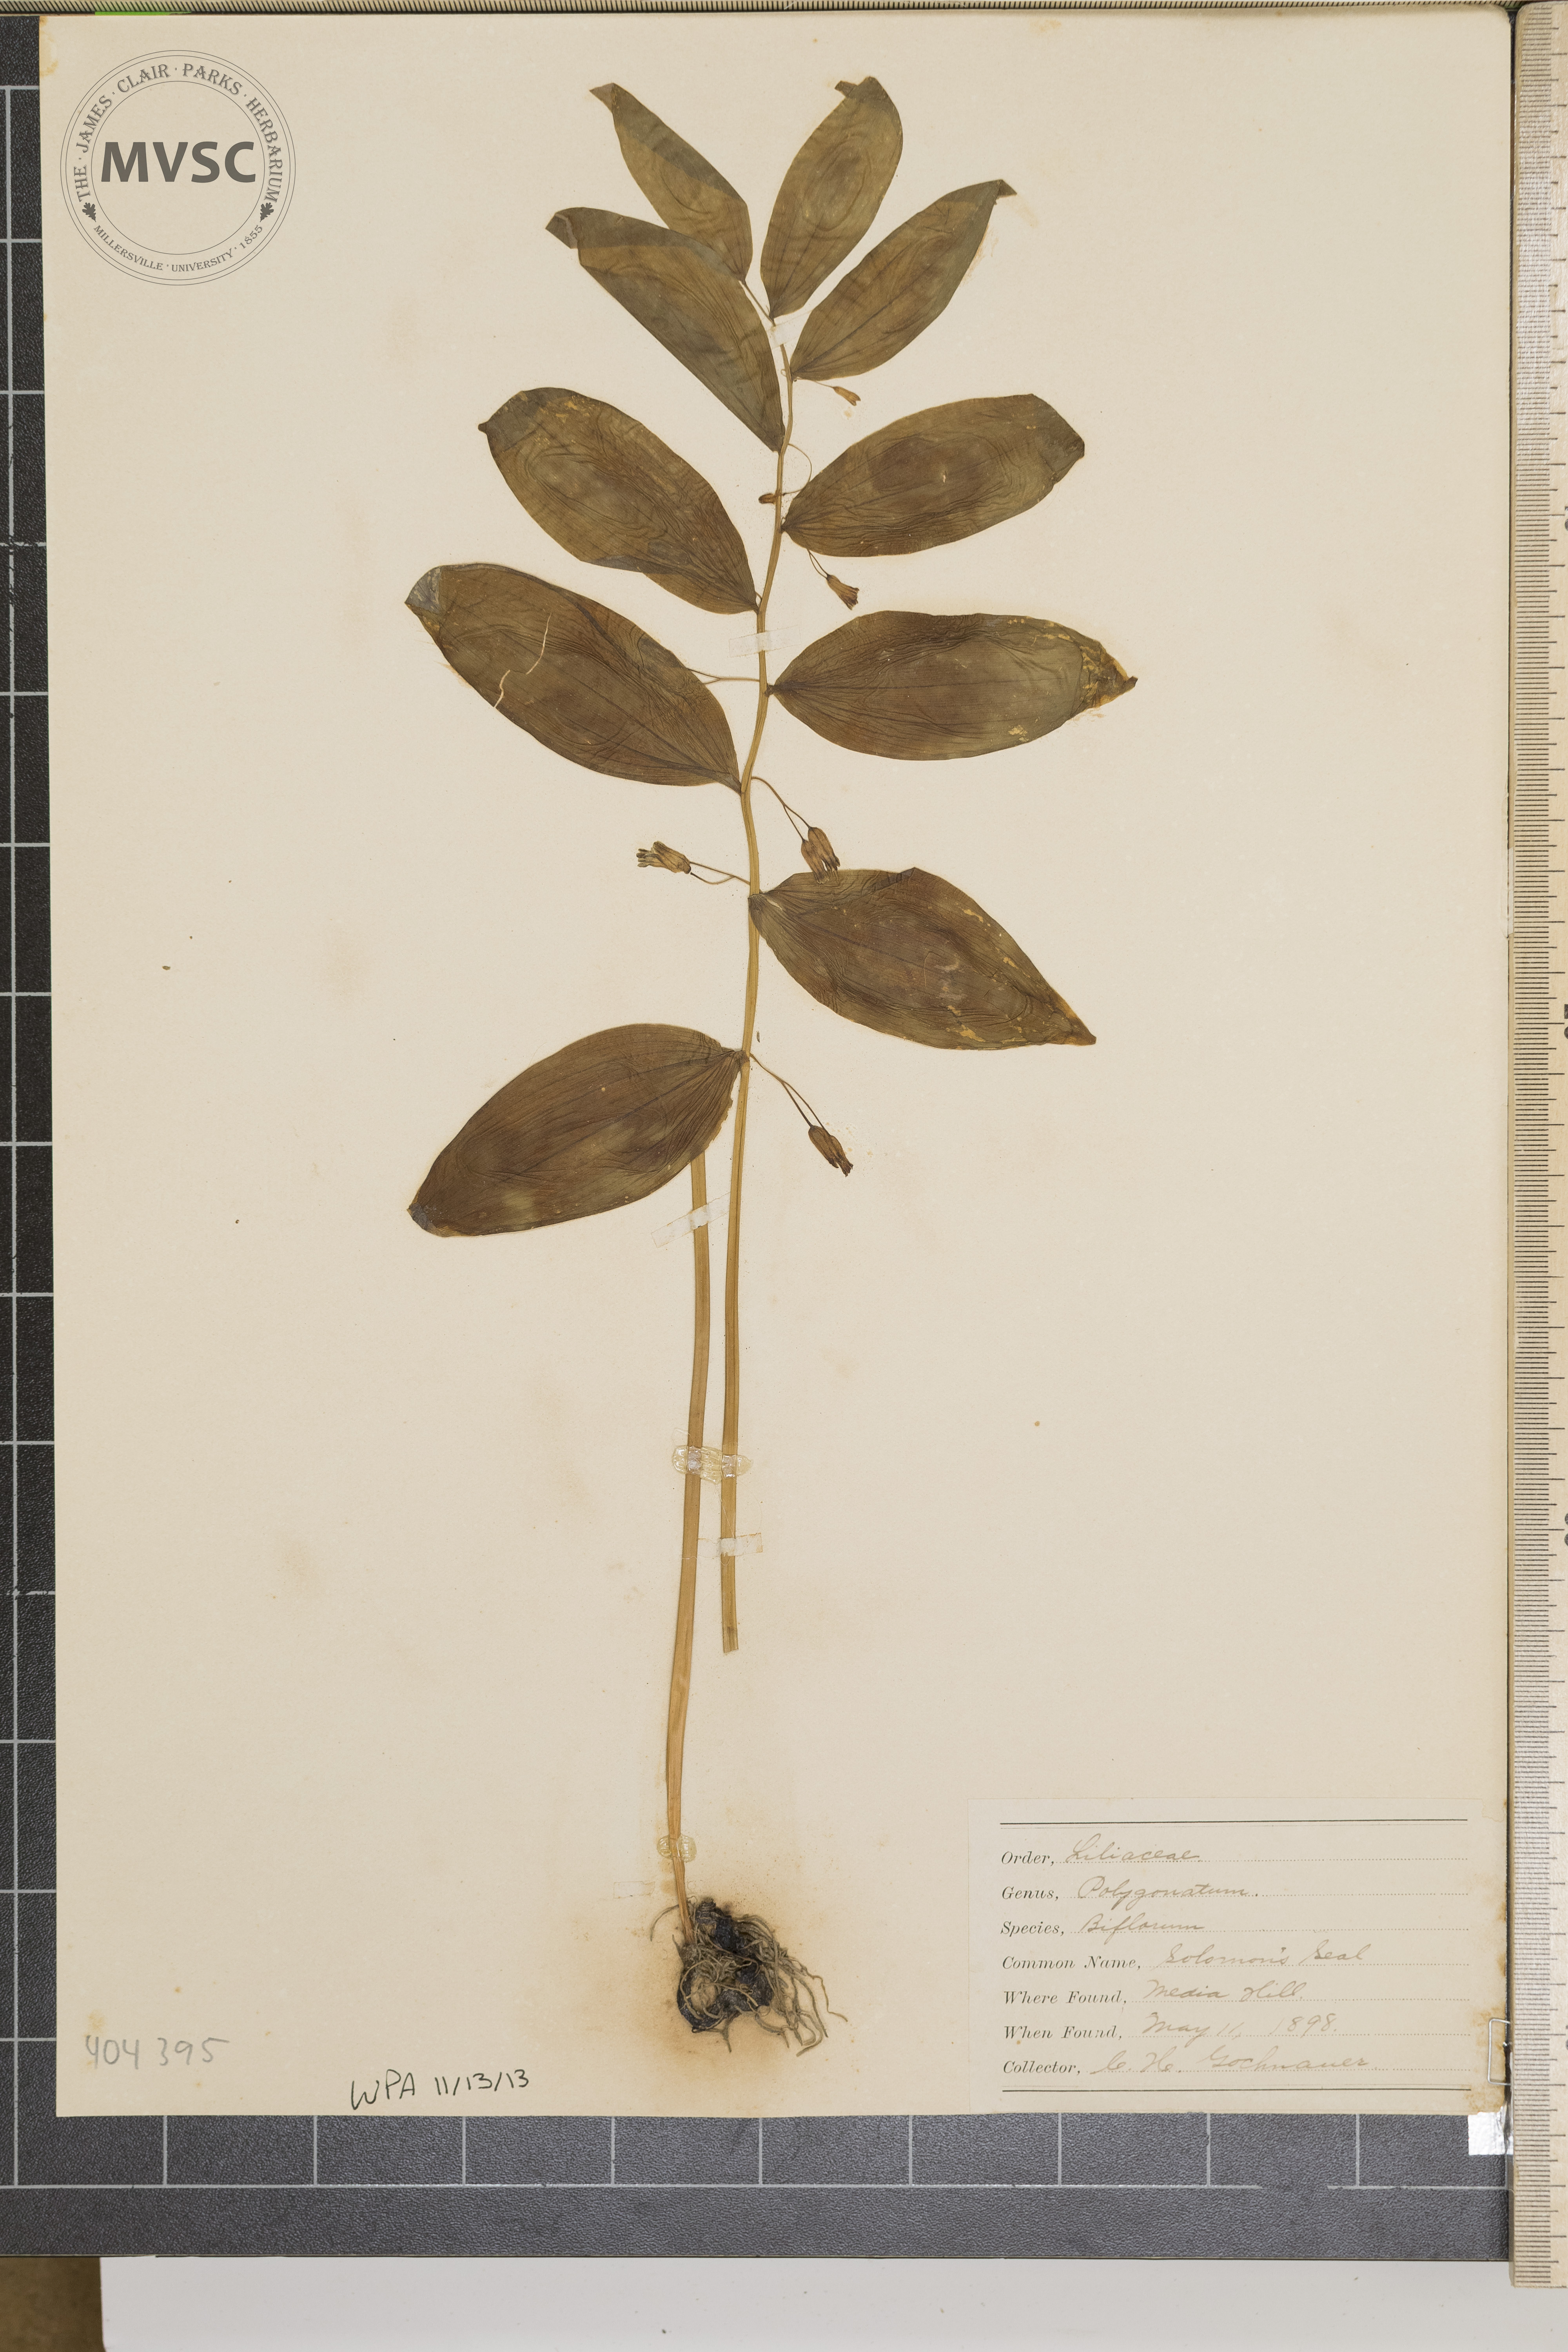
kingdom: Plantae
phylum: Tracheophyta
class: Liliopsida
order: Asparagales
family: Asparagaceae
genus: Polygonatum
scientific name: Polygonatum biflorum
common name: Solomon's Seal
